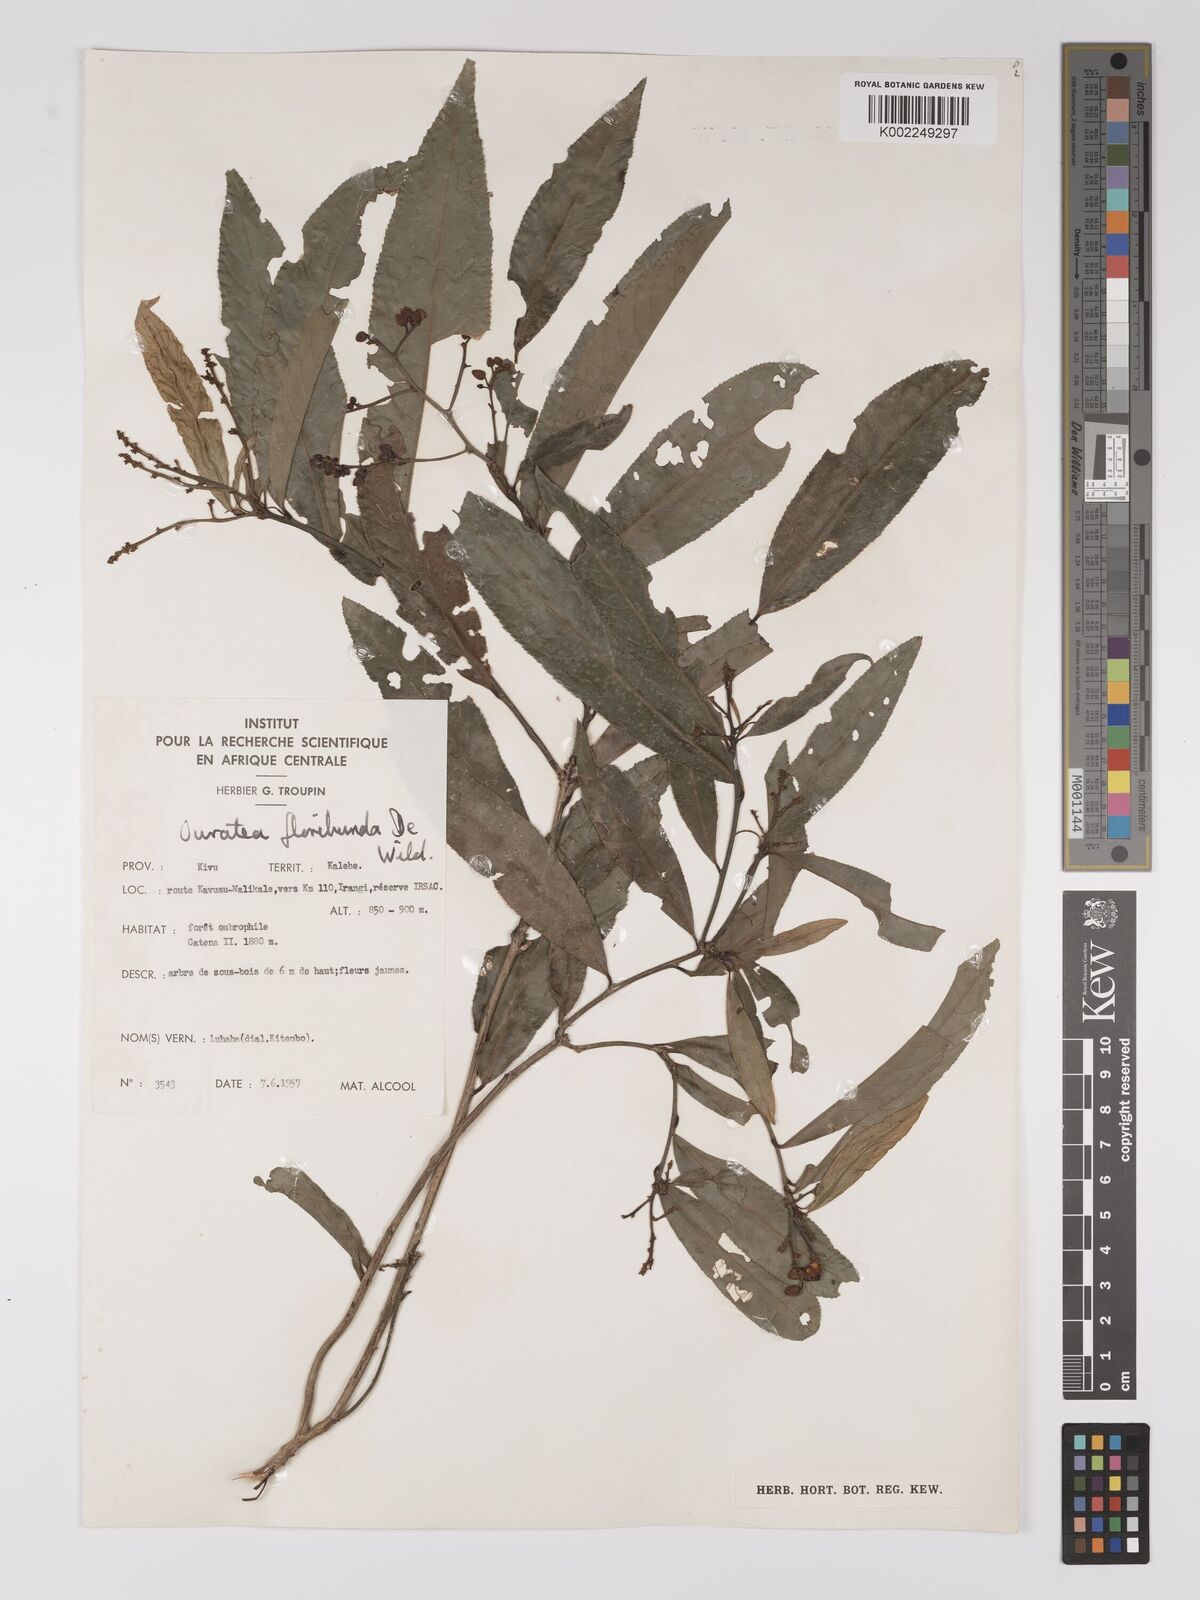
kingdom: Plantae
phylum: Tracheophyta
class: Magnoliopsida
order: Malpighiales
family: Ochnaceae
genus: Campylospermum
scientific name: Campylospermum likimiense
